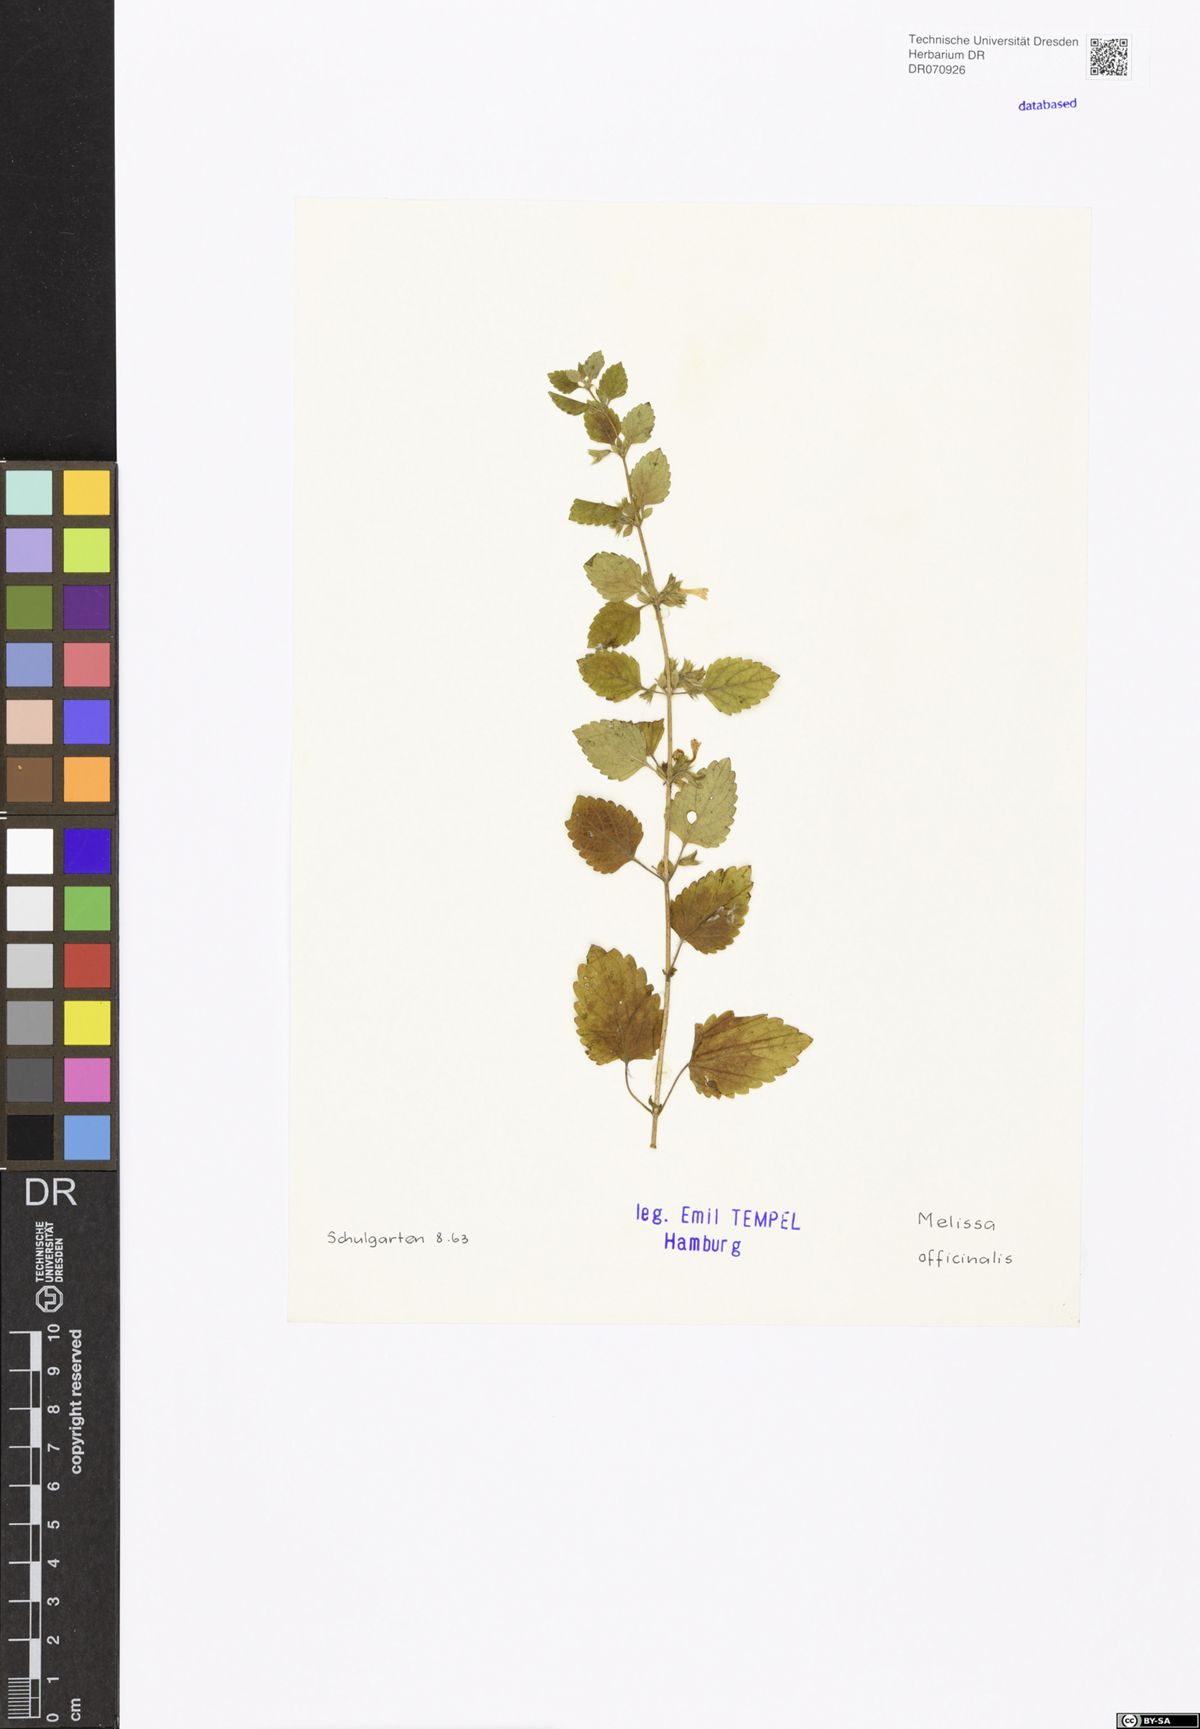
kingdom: Plantae
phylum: Tracheophyta
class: Magnoliopsida
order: Lamiales
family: Lamiaceae
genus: Melissa
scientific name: Melissa officinalis
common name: Balm
